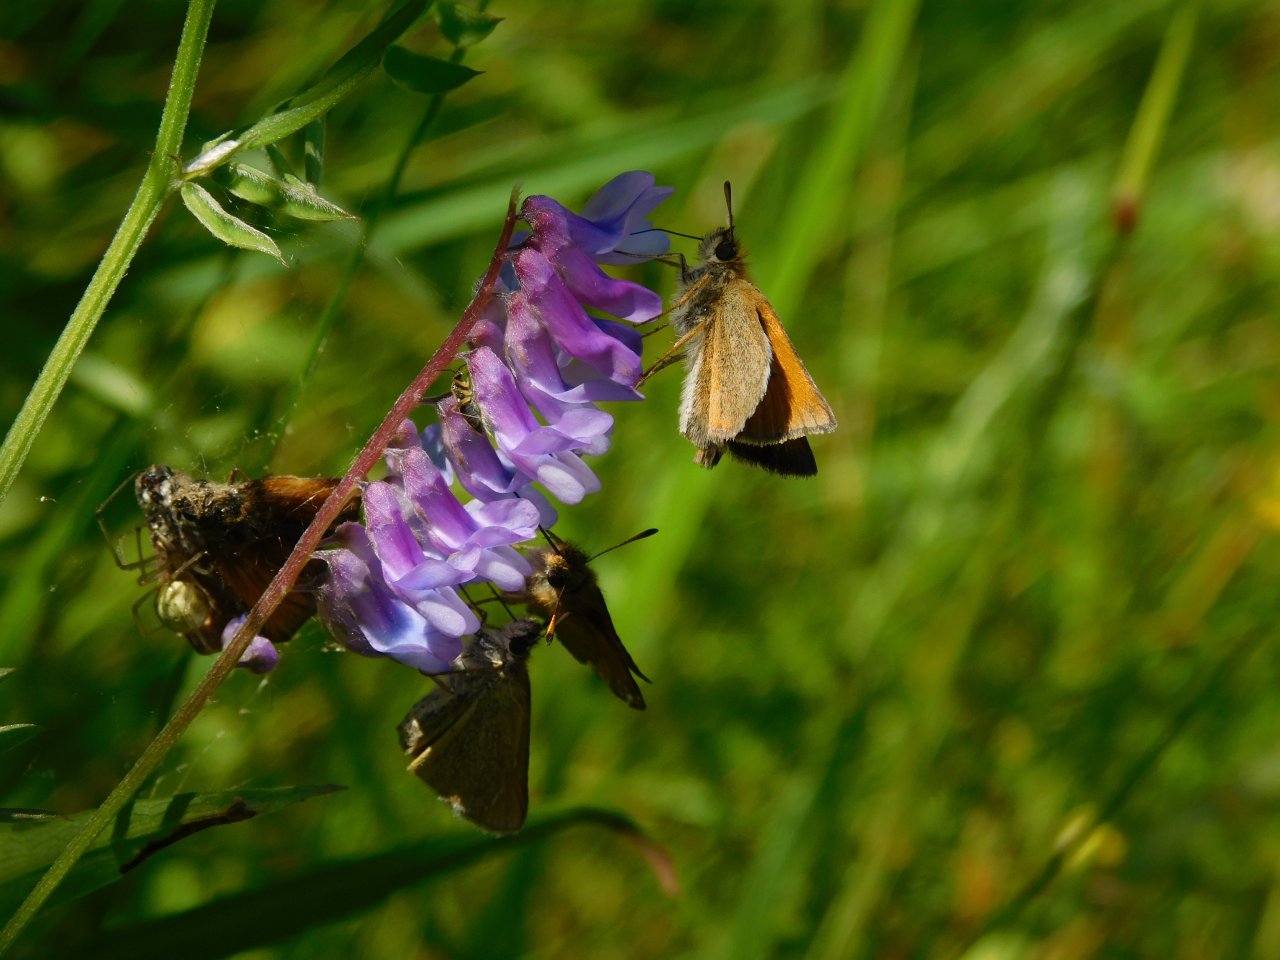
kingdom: Animalia
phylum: Arthropoda
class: Insecta
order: Lepidoptera
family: Hesperiidae
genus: Thymelicus
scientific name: Thymelicus lineola
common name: European Skipper
